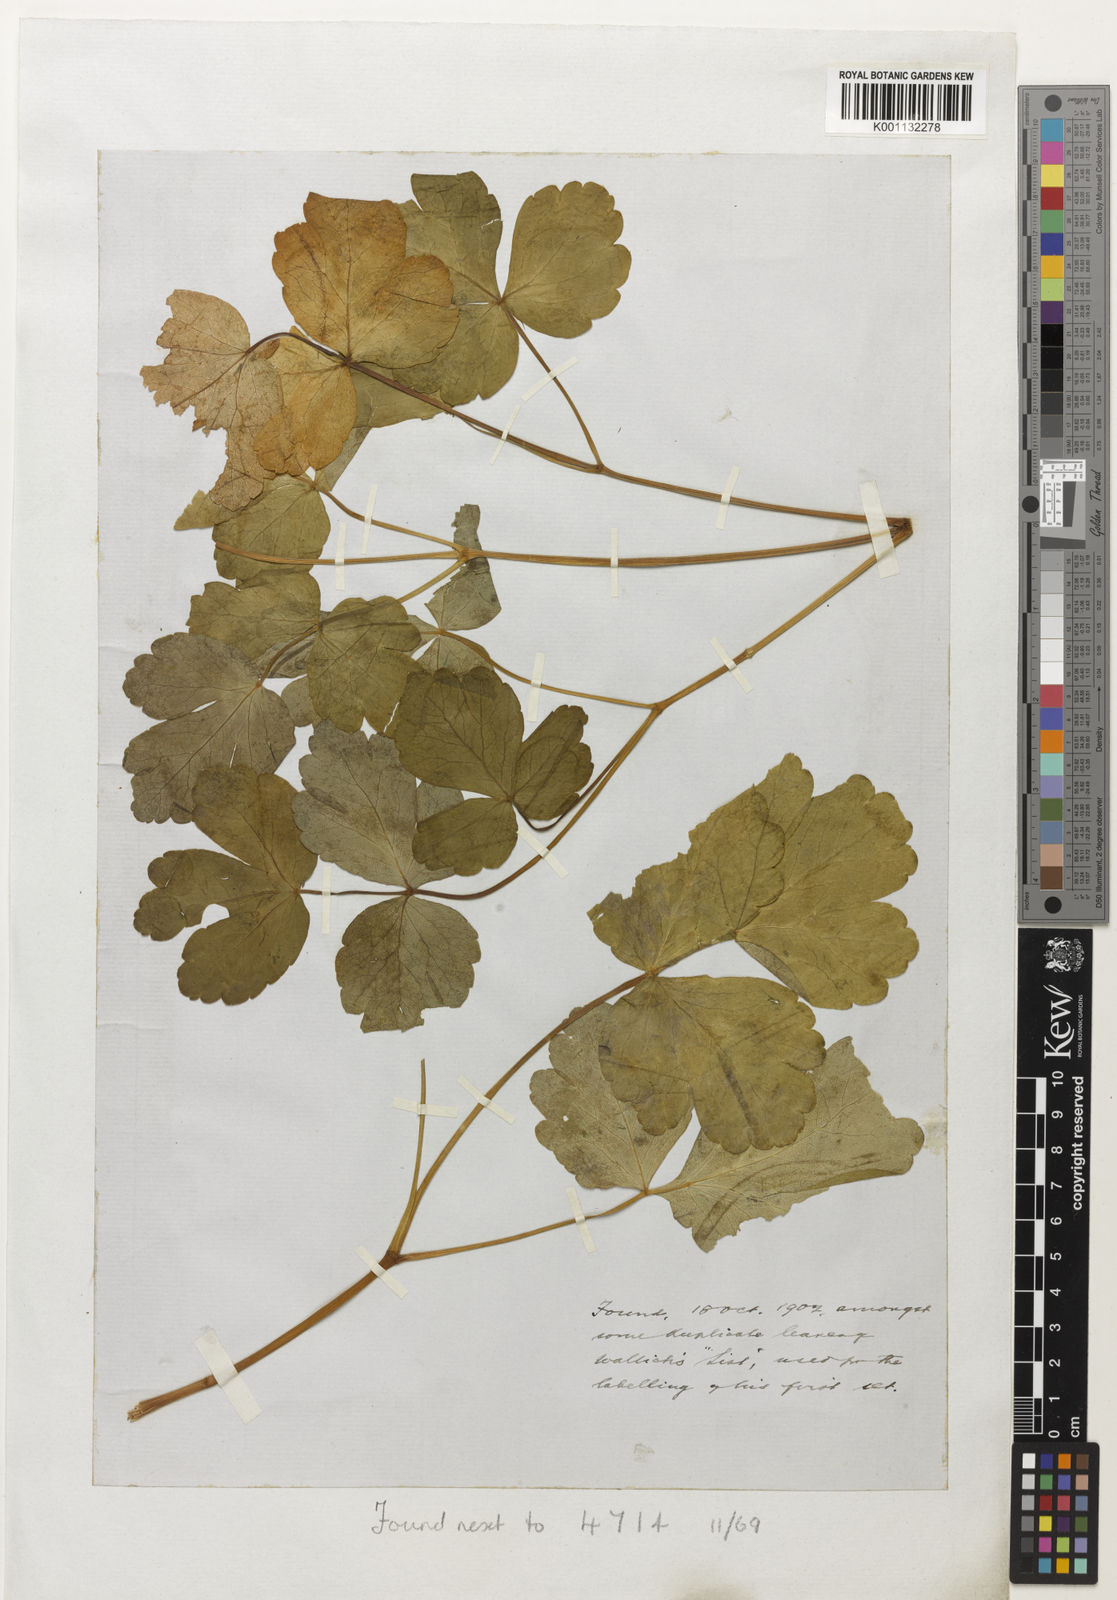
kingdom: Plantae
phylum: Tracheophyta
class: Magnoliopsida
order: Ranunculales
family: Ranunculaceae
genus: Aquilegia
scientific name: Aquilegia
